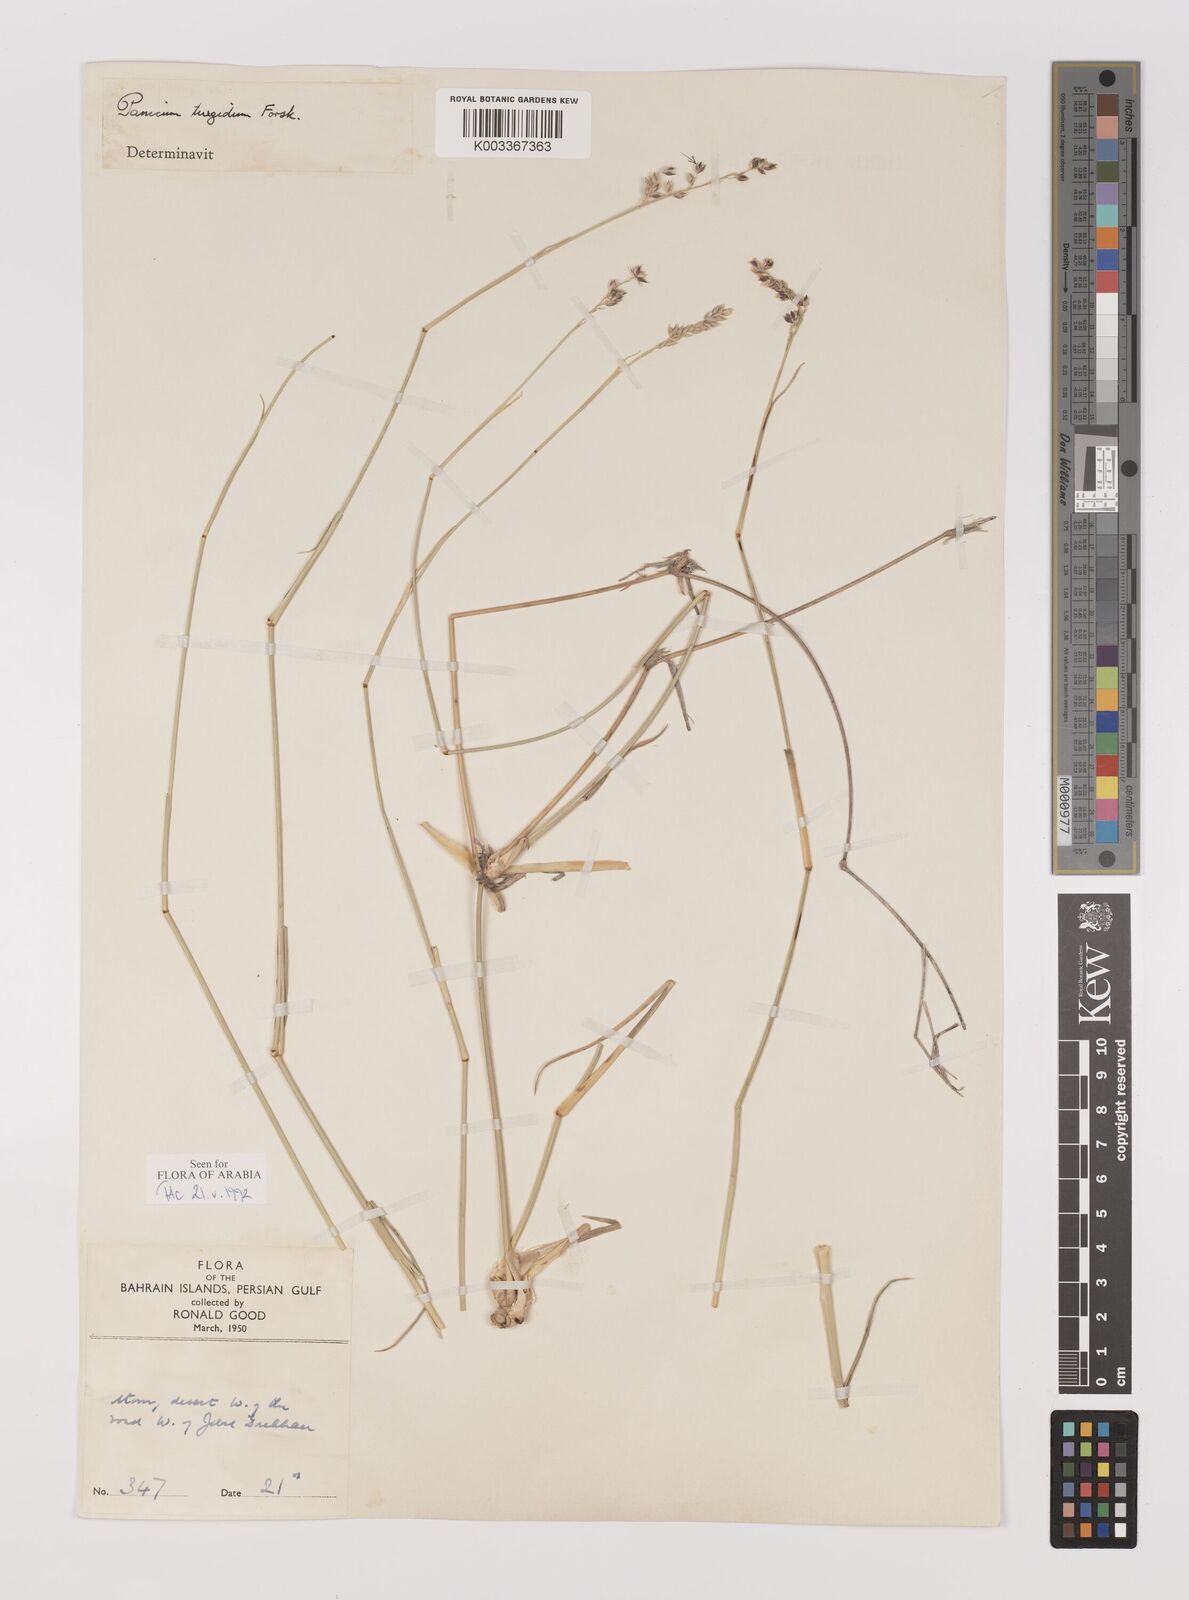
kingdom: Plantae
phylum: Tracheophyta
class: Liliopsida
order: Poales
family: Poaceae
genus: Panicum
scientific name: Panicum turgidum
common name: Desert grass
